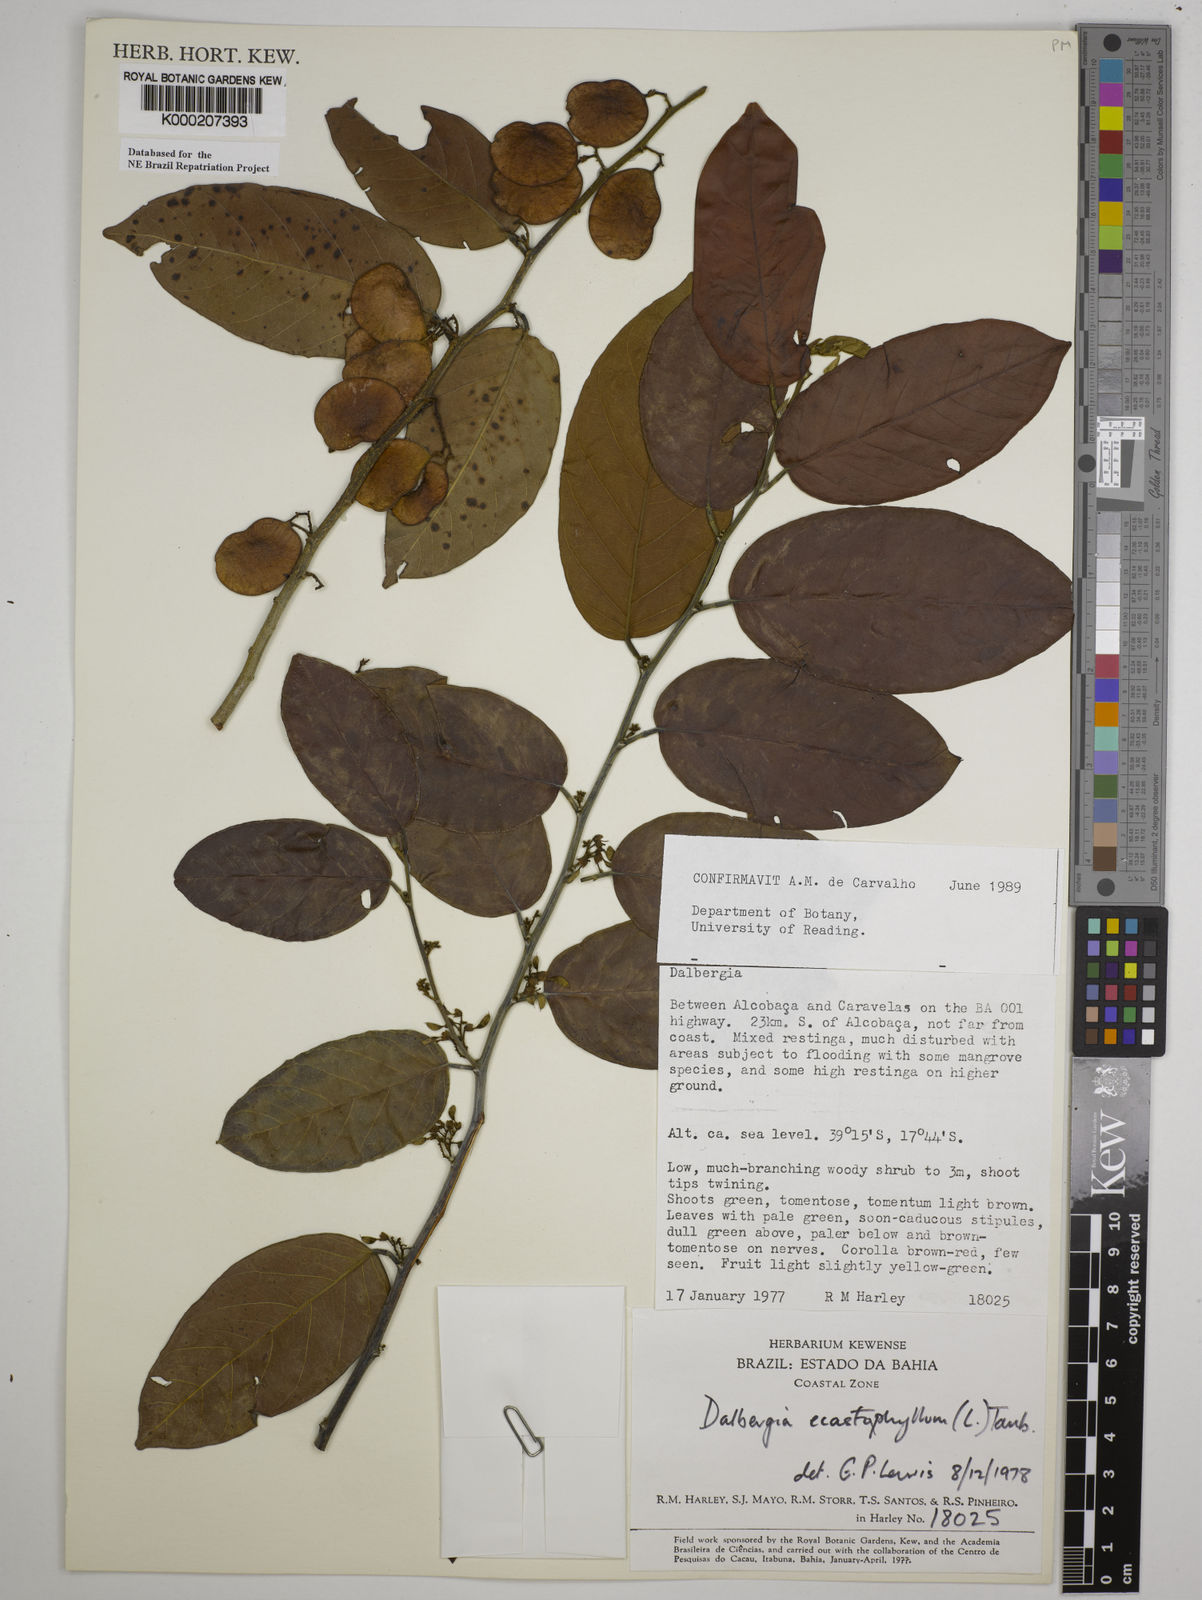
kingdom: Plantae
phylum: Tracheophyta
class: Magnoliopsida
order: Fabales
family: Fabaceae
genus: Dalbergia
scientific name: Dalbergia
